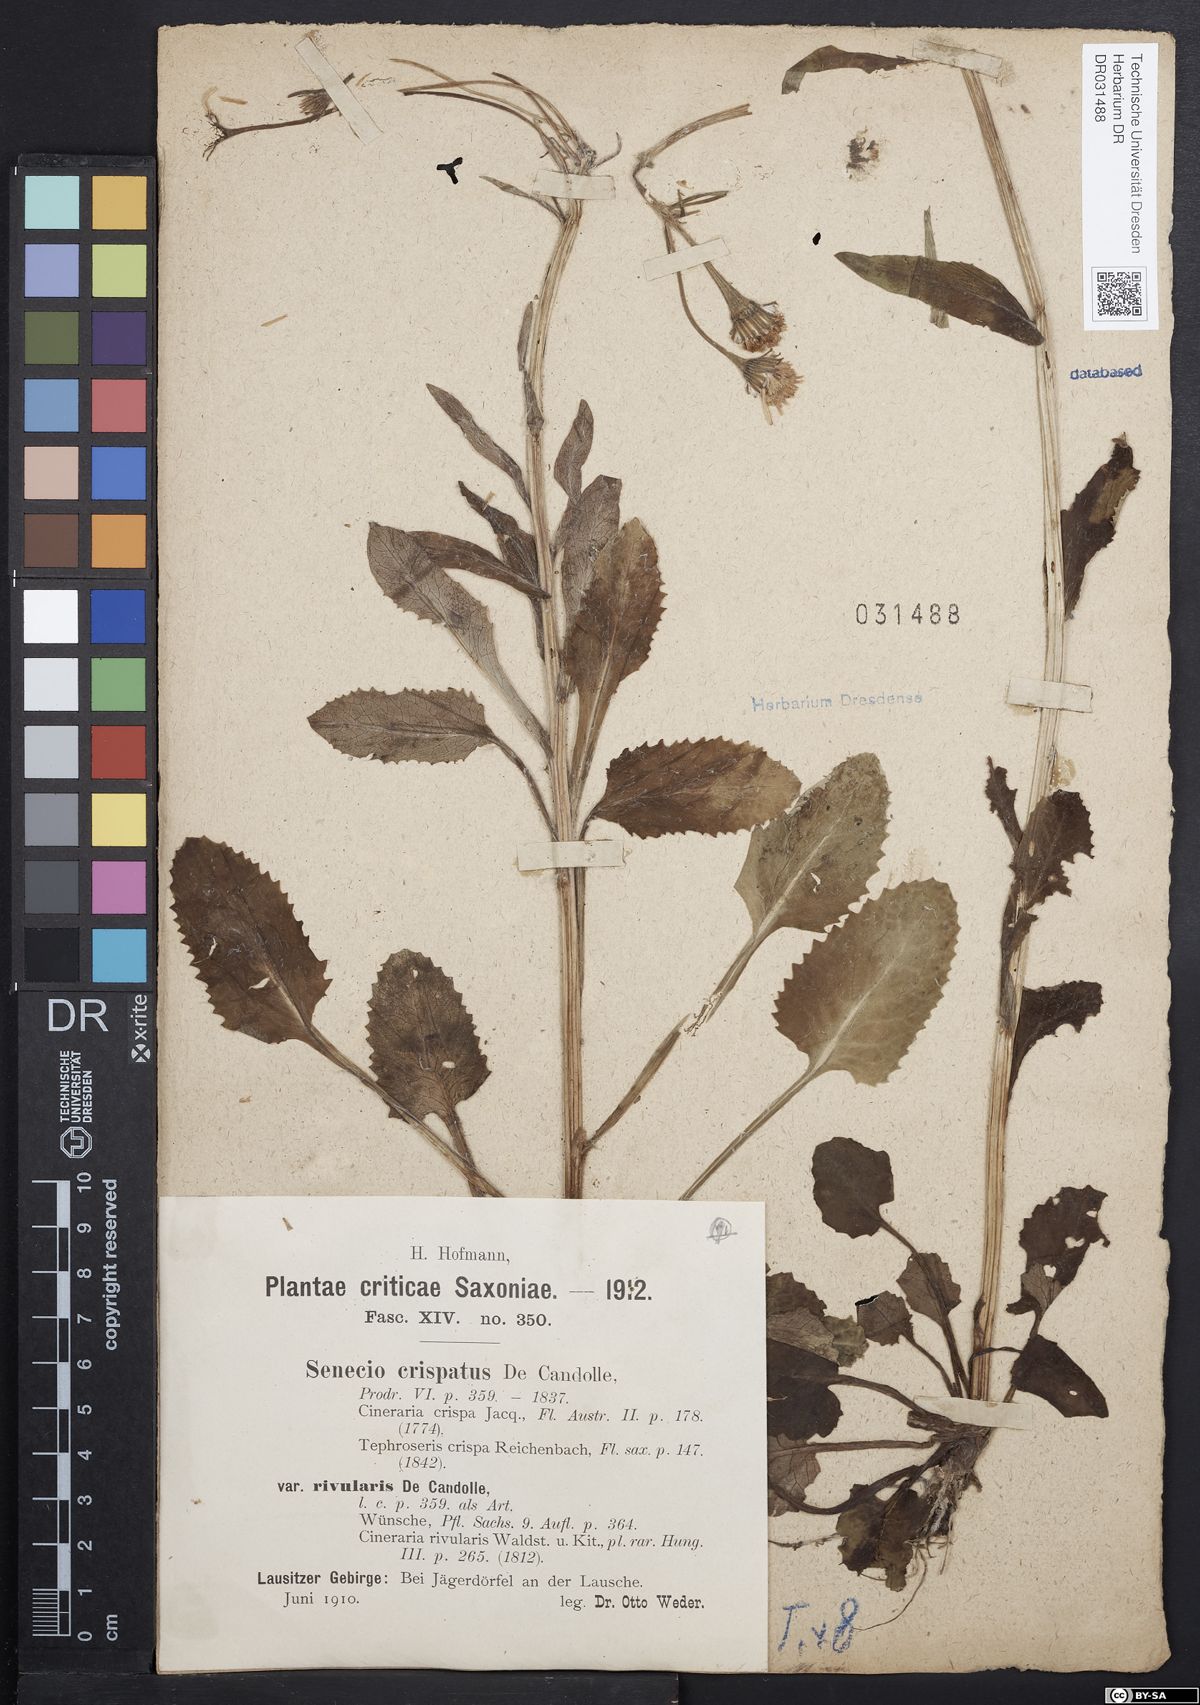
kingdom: Plantae
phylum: Tracheophyta
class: Magnoliopsida
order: Asterales
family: Asteraceae
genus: Tephroseris
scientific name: Tephroseris crispa
